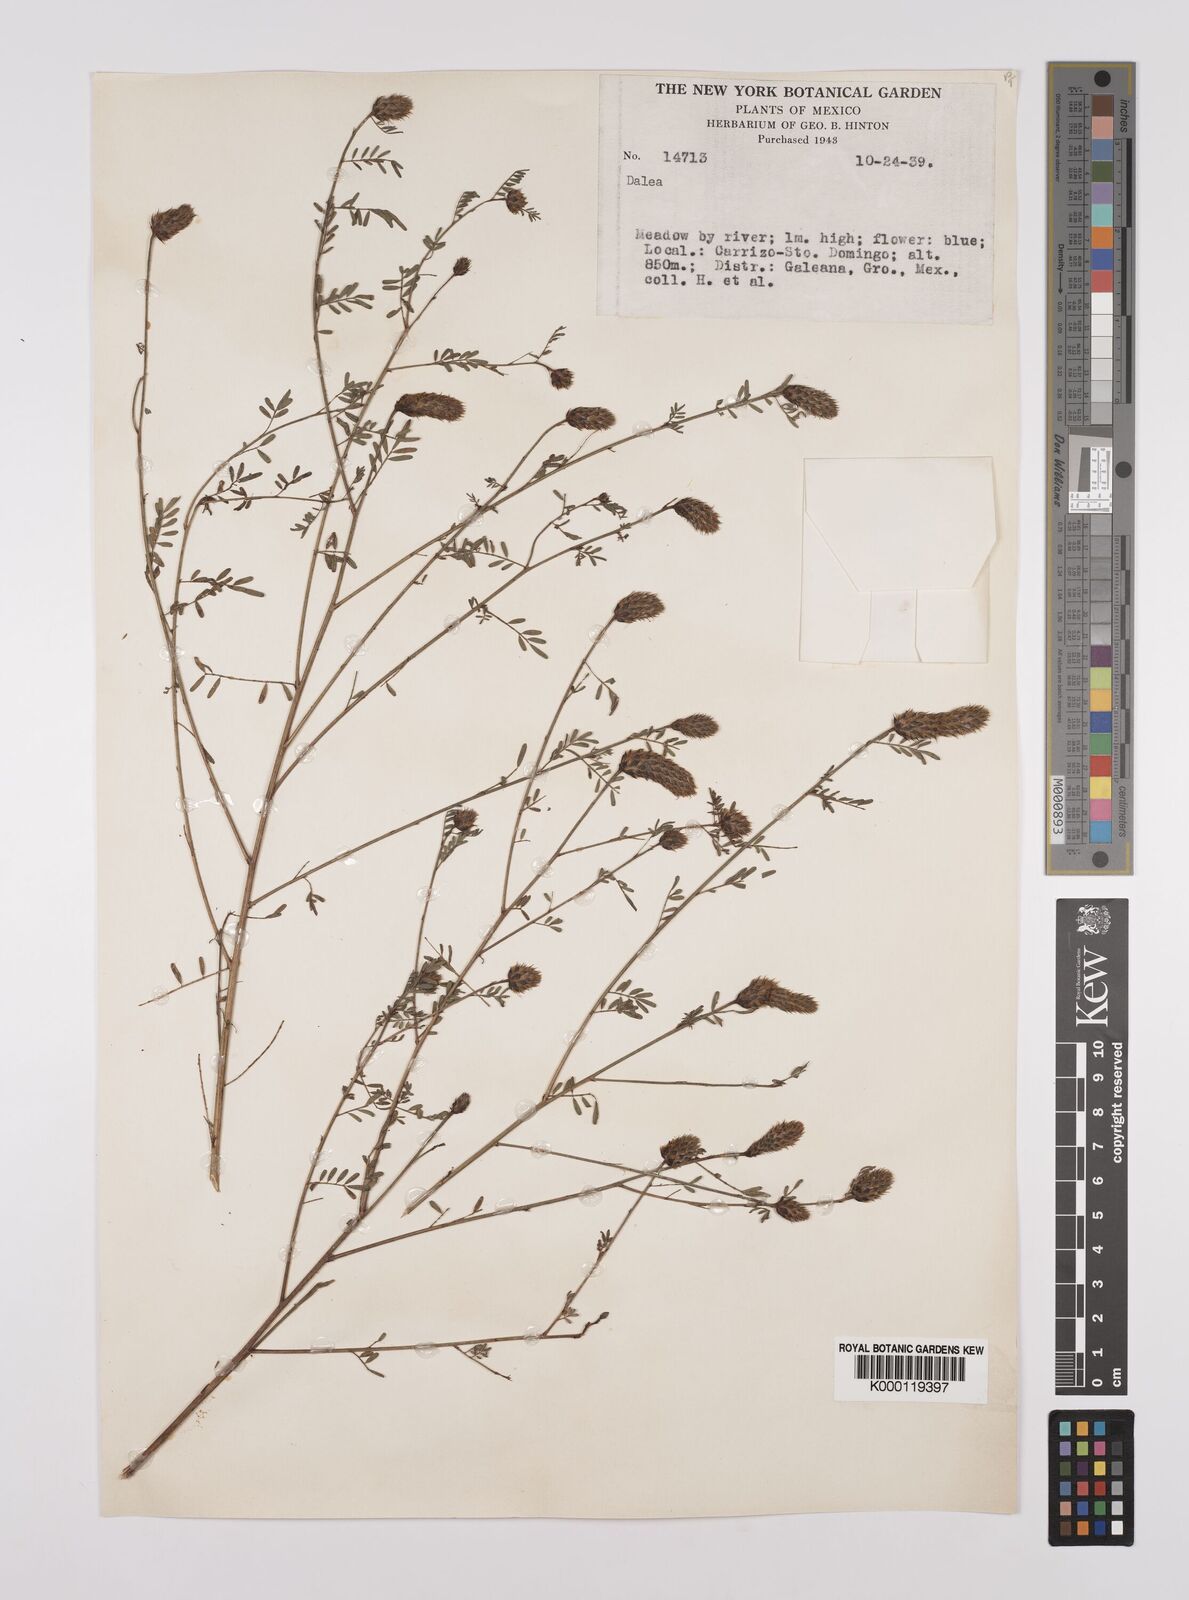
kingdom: Plantae
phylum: Tracheophyta
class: Magnoliopsida
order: Fabales
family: Fabaceae
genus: Dalea
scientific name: Dalea
